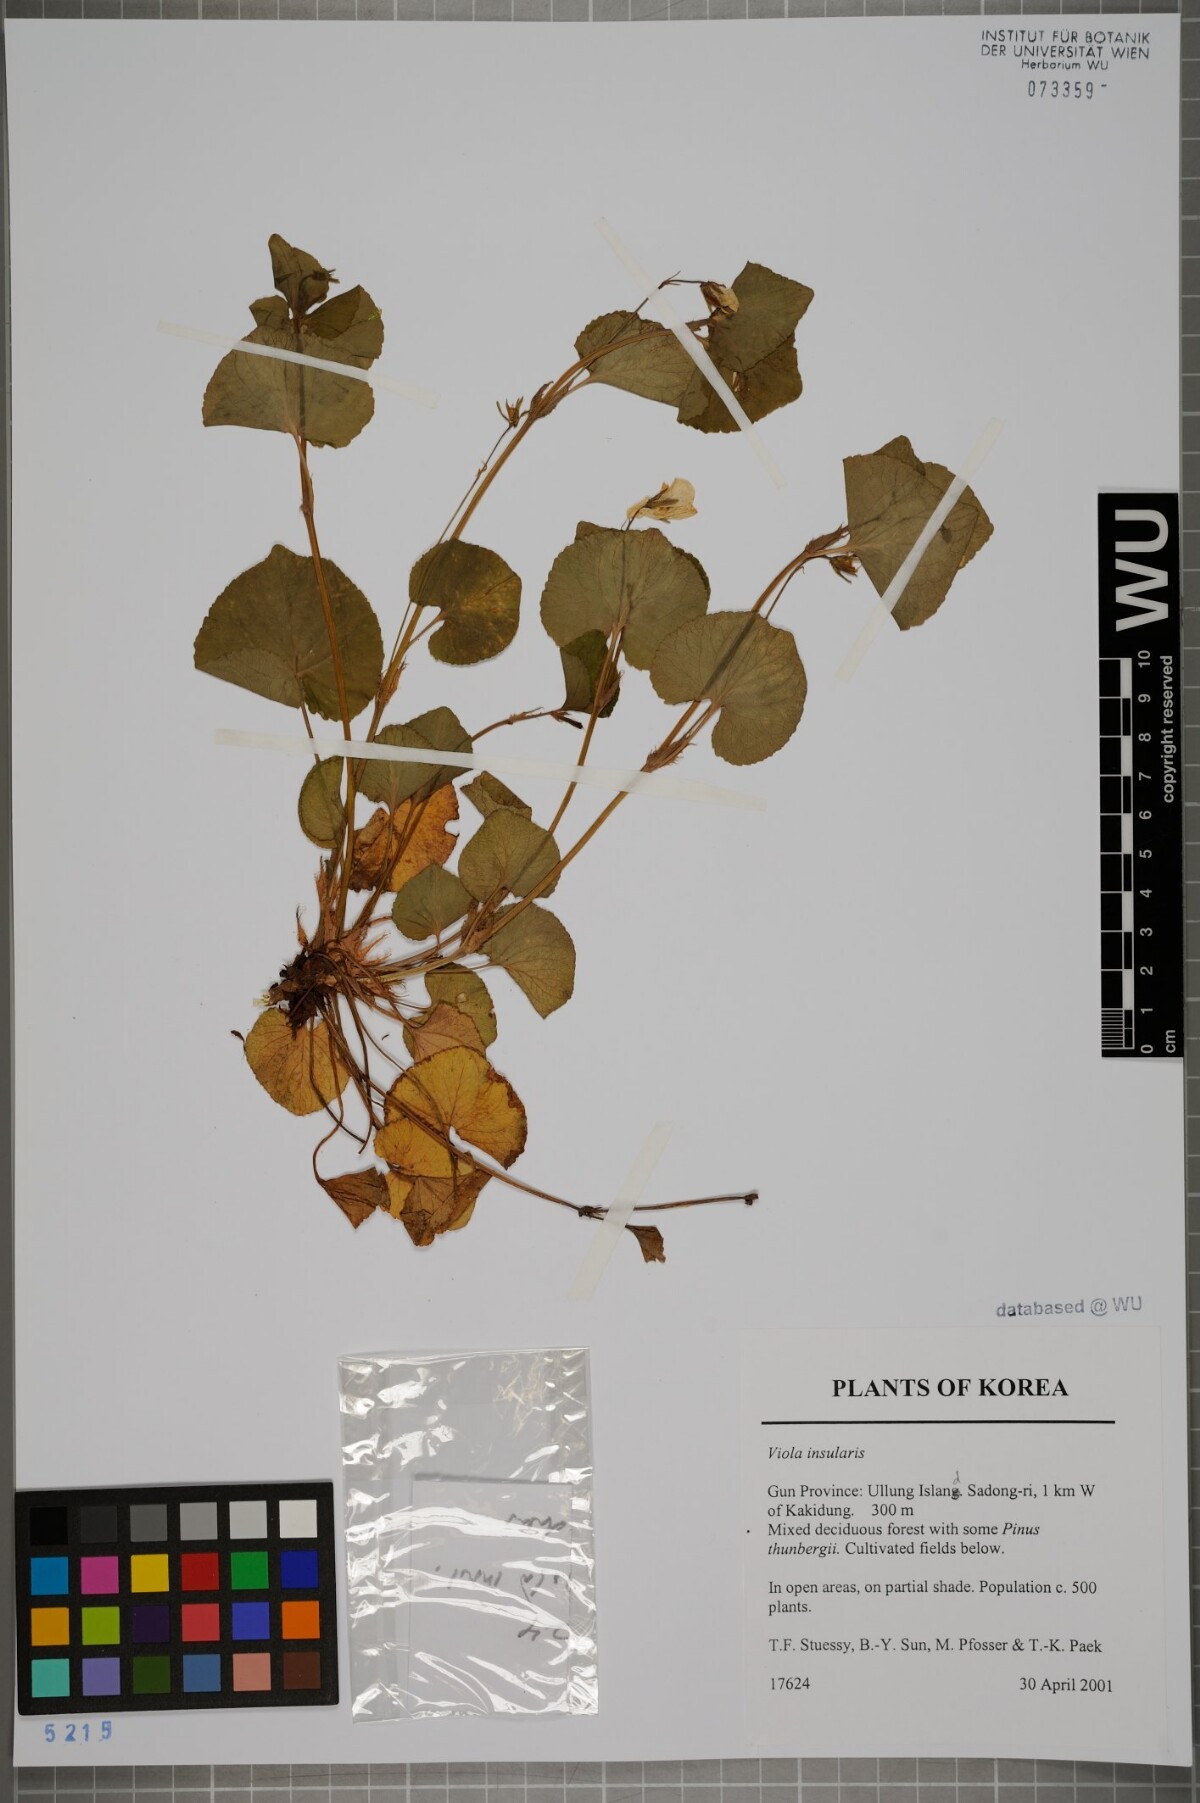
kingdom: Plantae
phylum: Tracheophyta
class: Magnoliopsida
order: Malpighiales
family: Violaceae
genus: Viola
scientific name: Viola kusanoana
